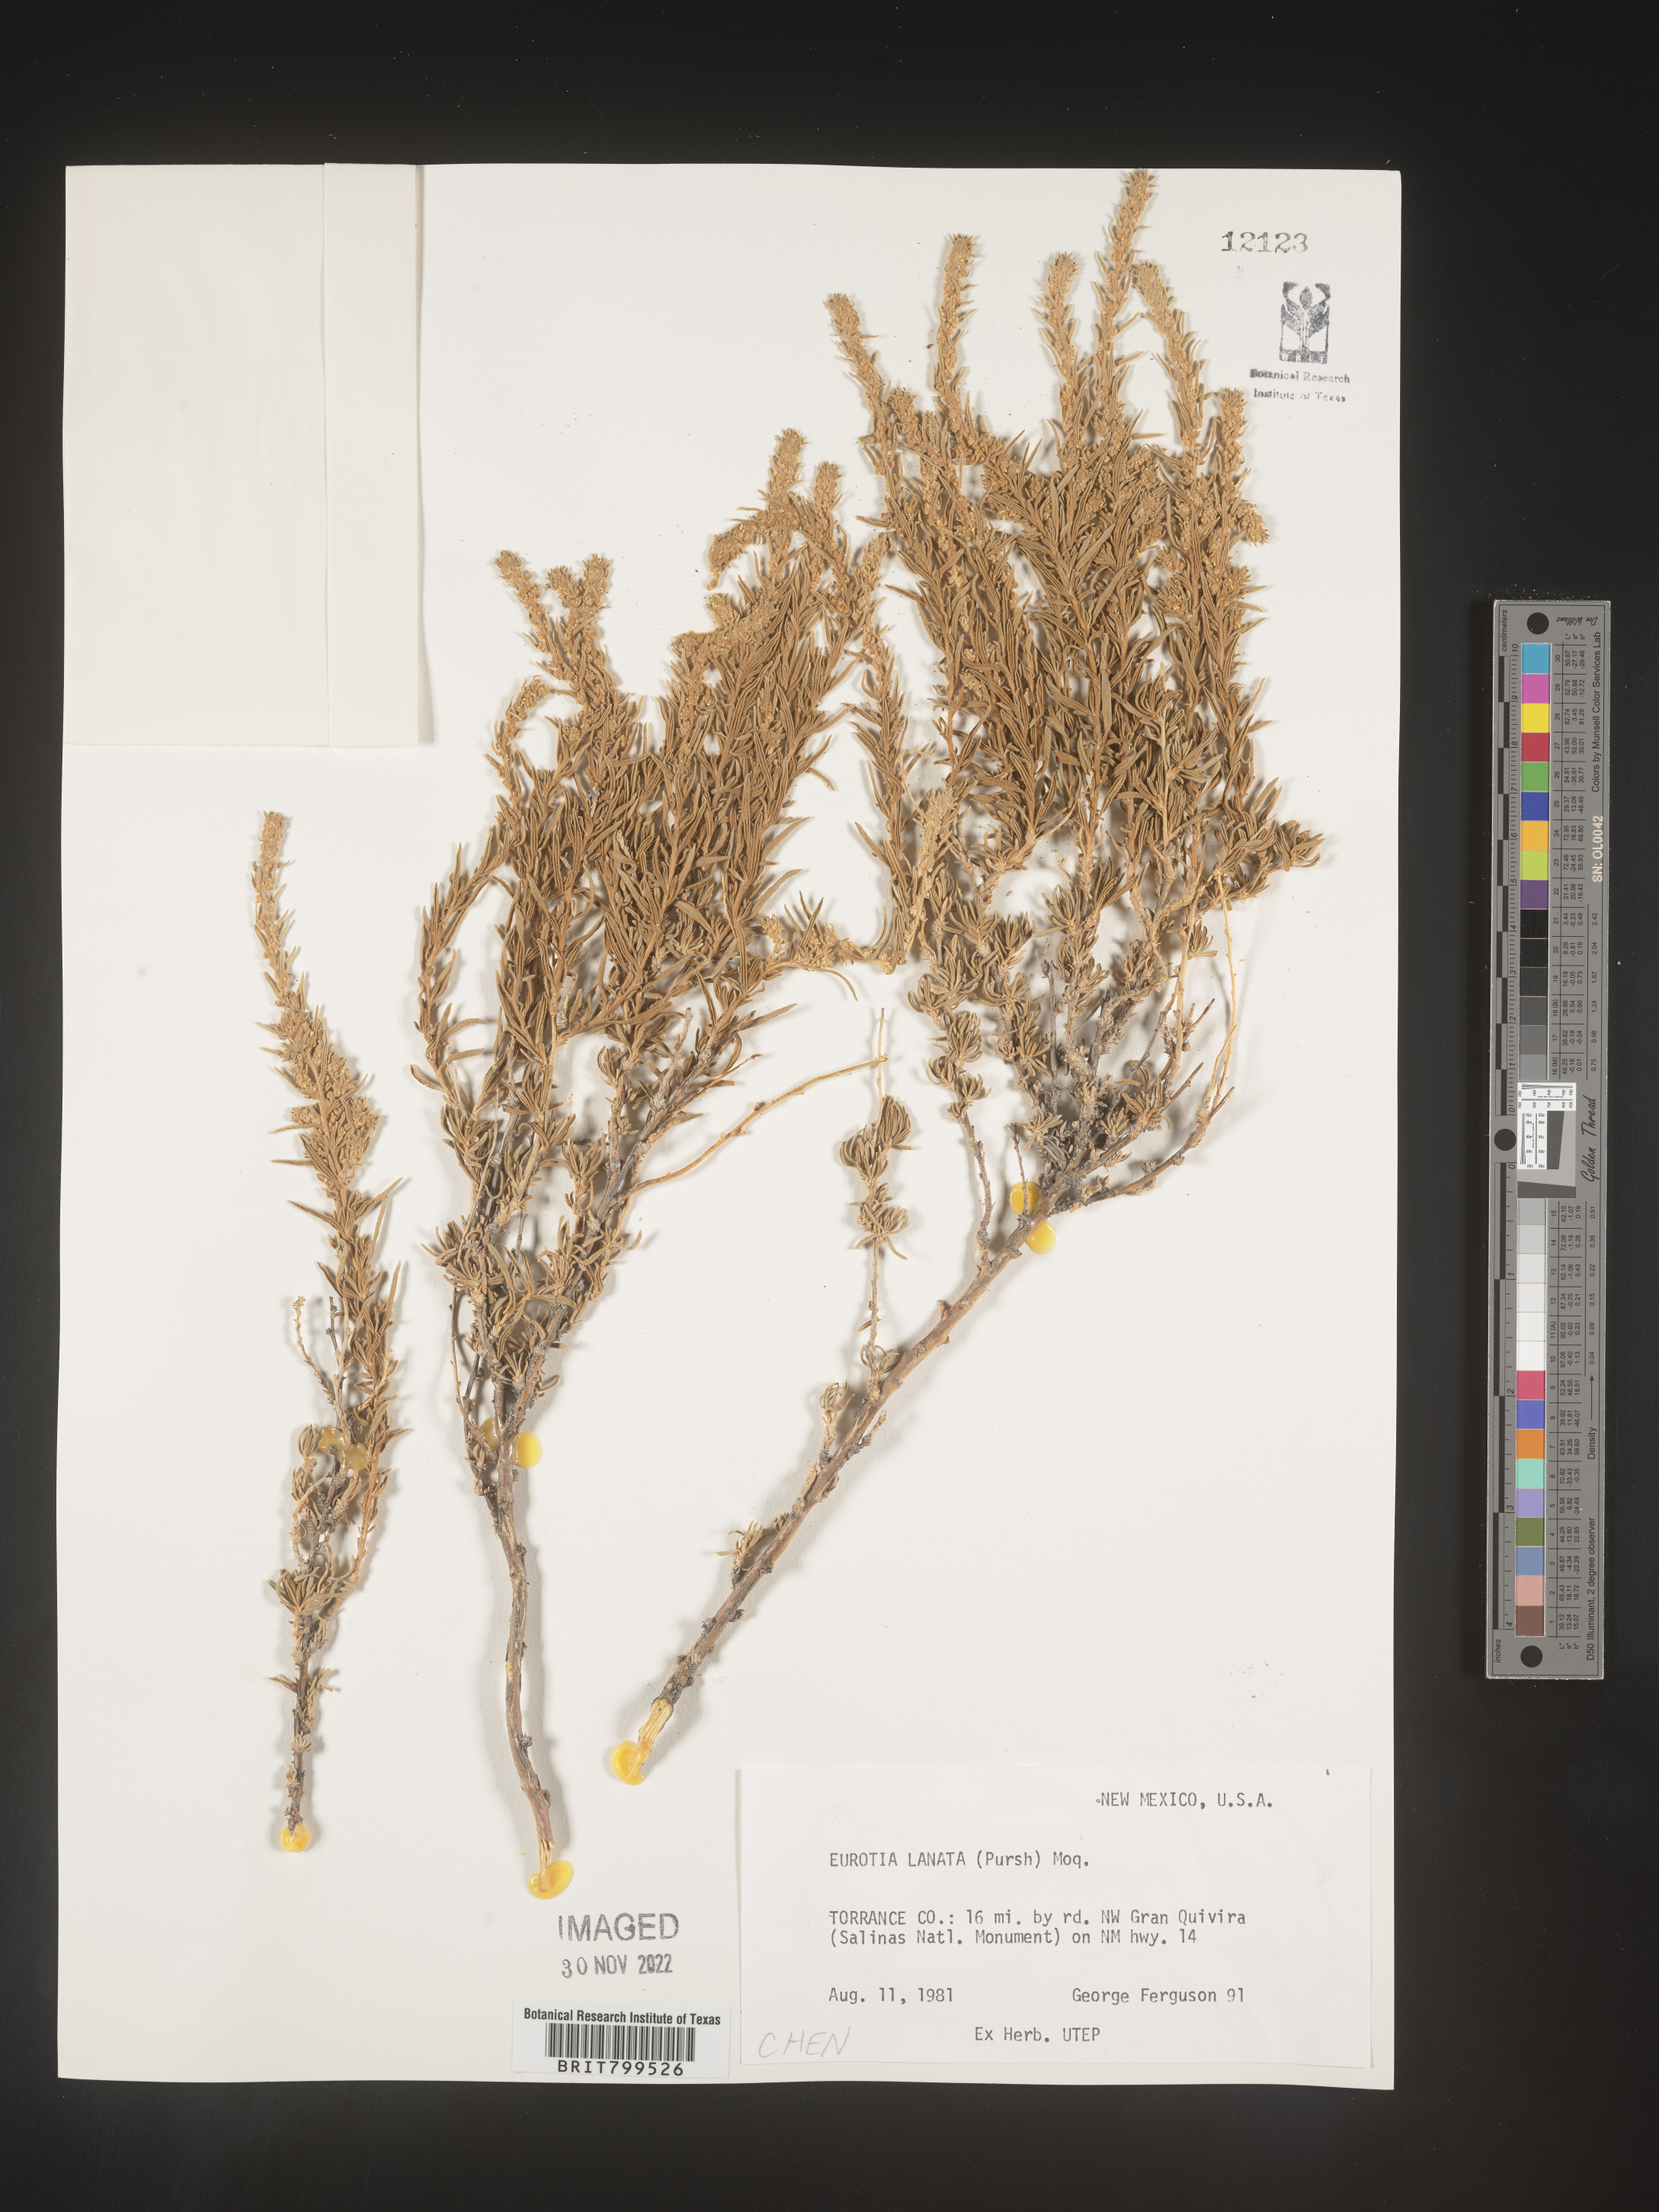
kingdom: Plantae
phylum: Tracheophyta
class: Magnoliopsida
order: Caryophyllales
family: Amaranthaceae
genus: Krascheninnikovia
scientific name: Krascheninnikovia
